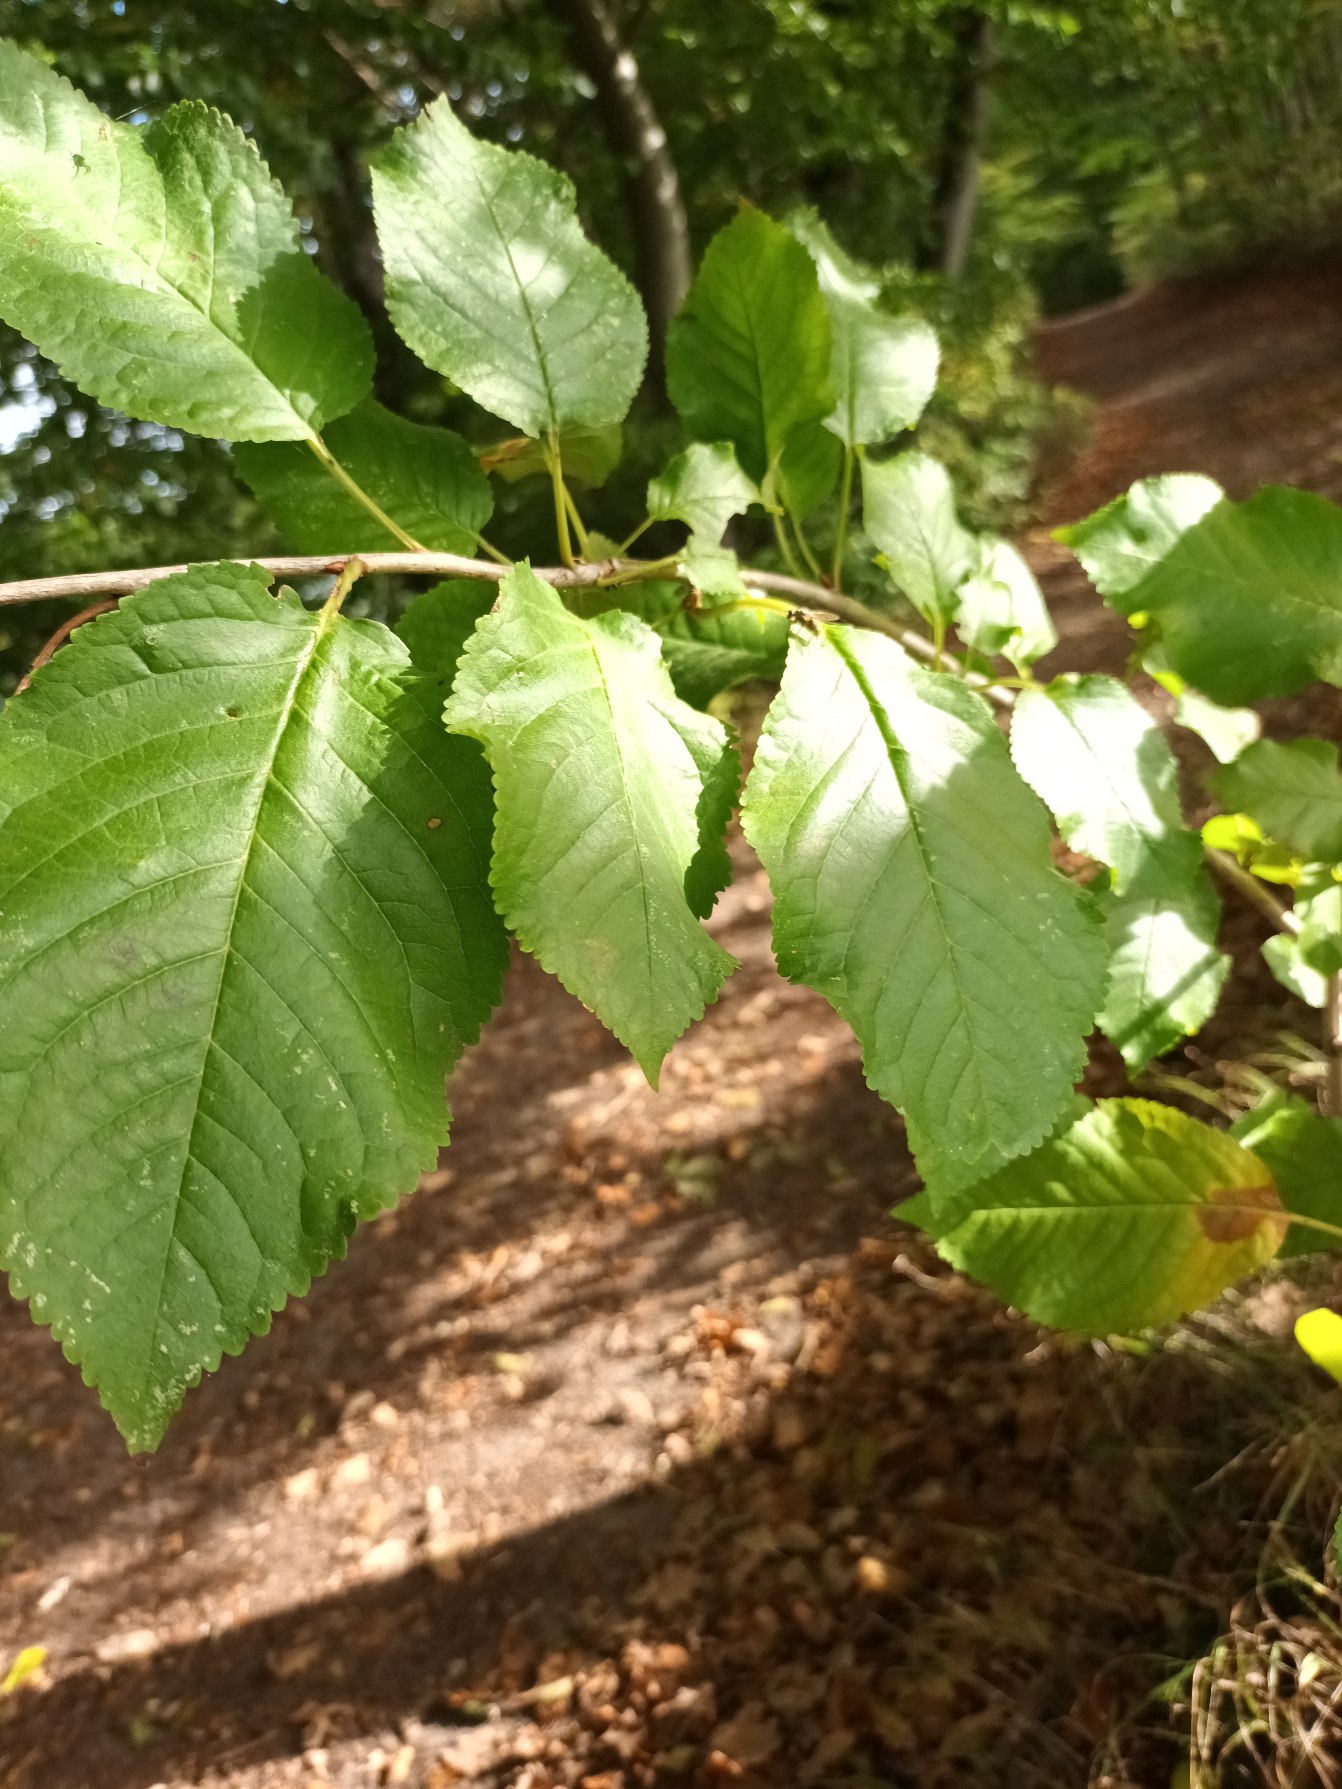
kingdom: Plantae
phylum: Tracheophyta
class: Magnoliopsida
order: Rosales
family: Rosaceae
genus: Prunus
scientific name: Prunus avium
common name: Fugle-kirsebær
